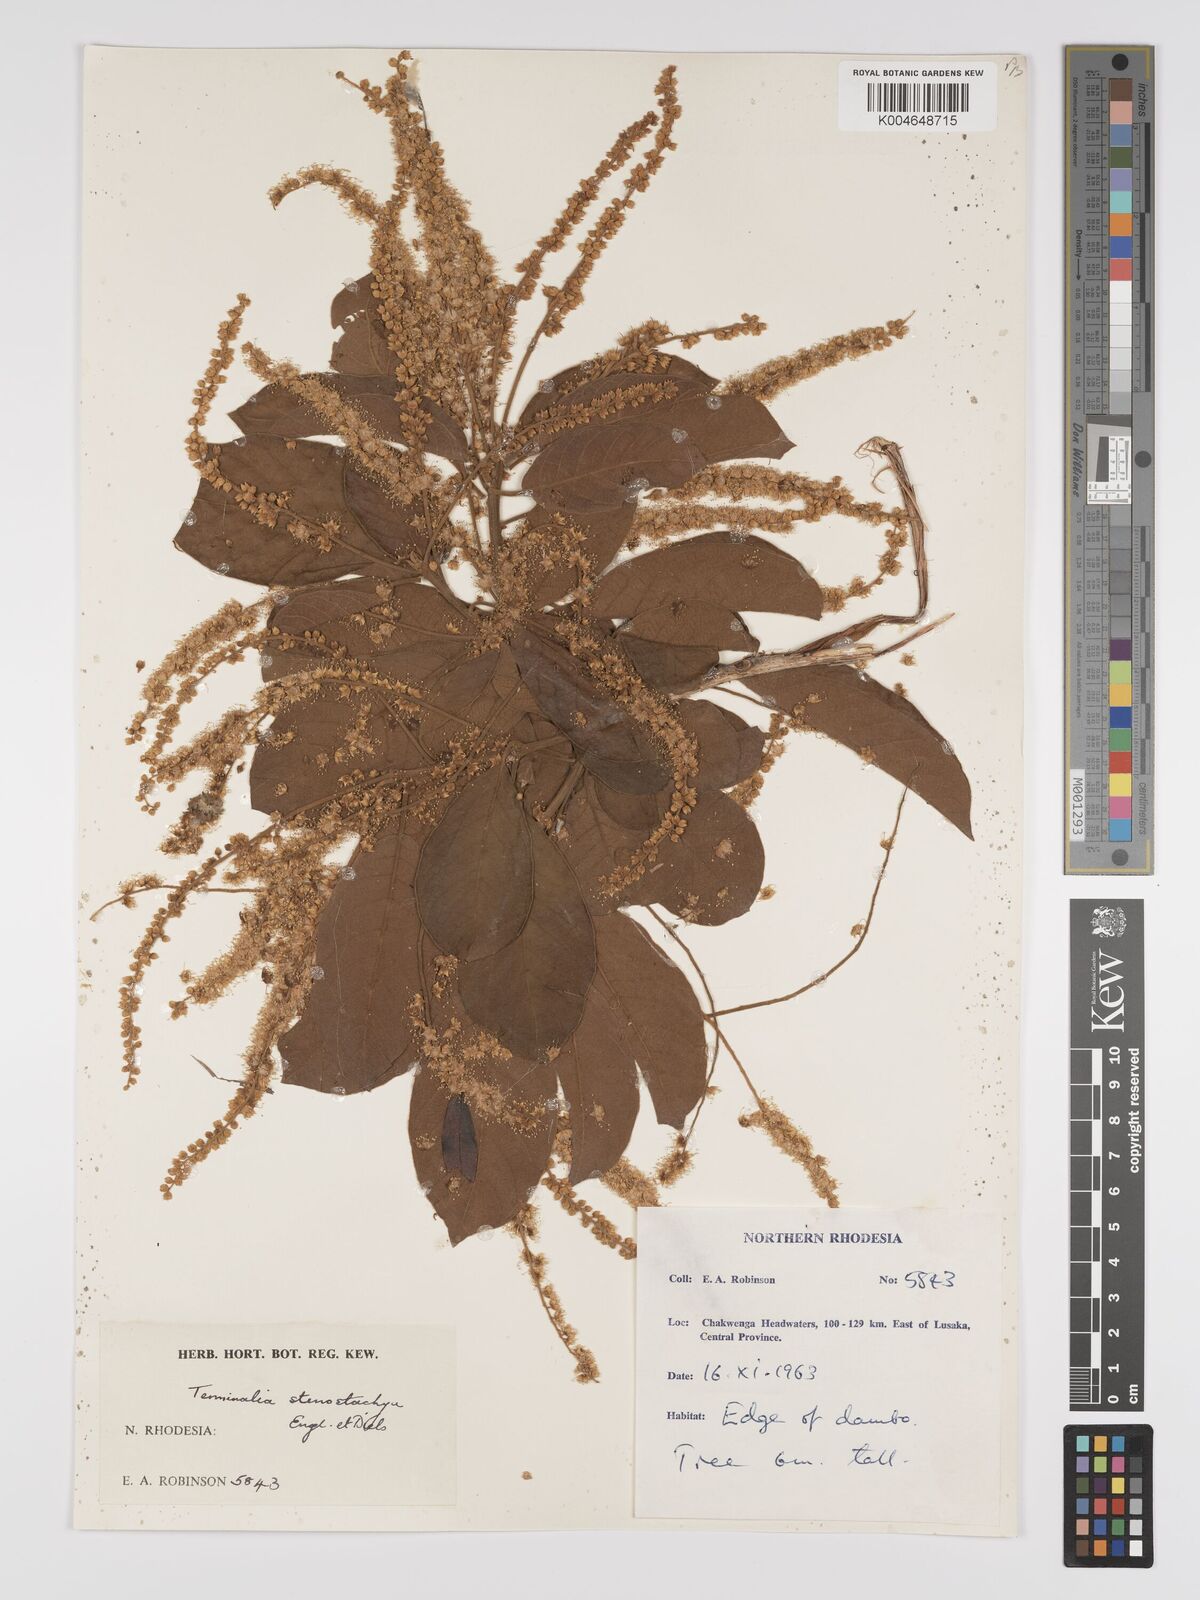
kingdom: Plantae
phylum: Tracheophyta
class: Magnoliopsida
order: Myrtales
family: Combretaceae
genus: Terminalia
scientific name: Terminalia stenostachya
